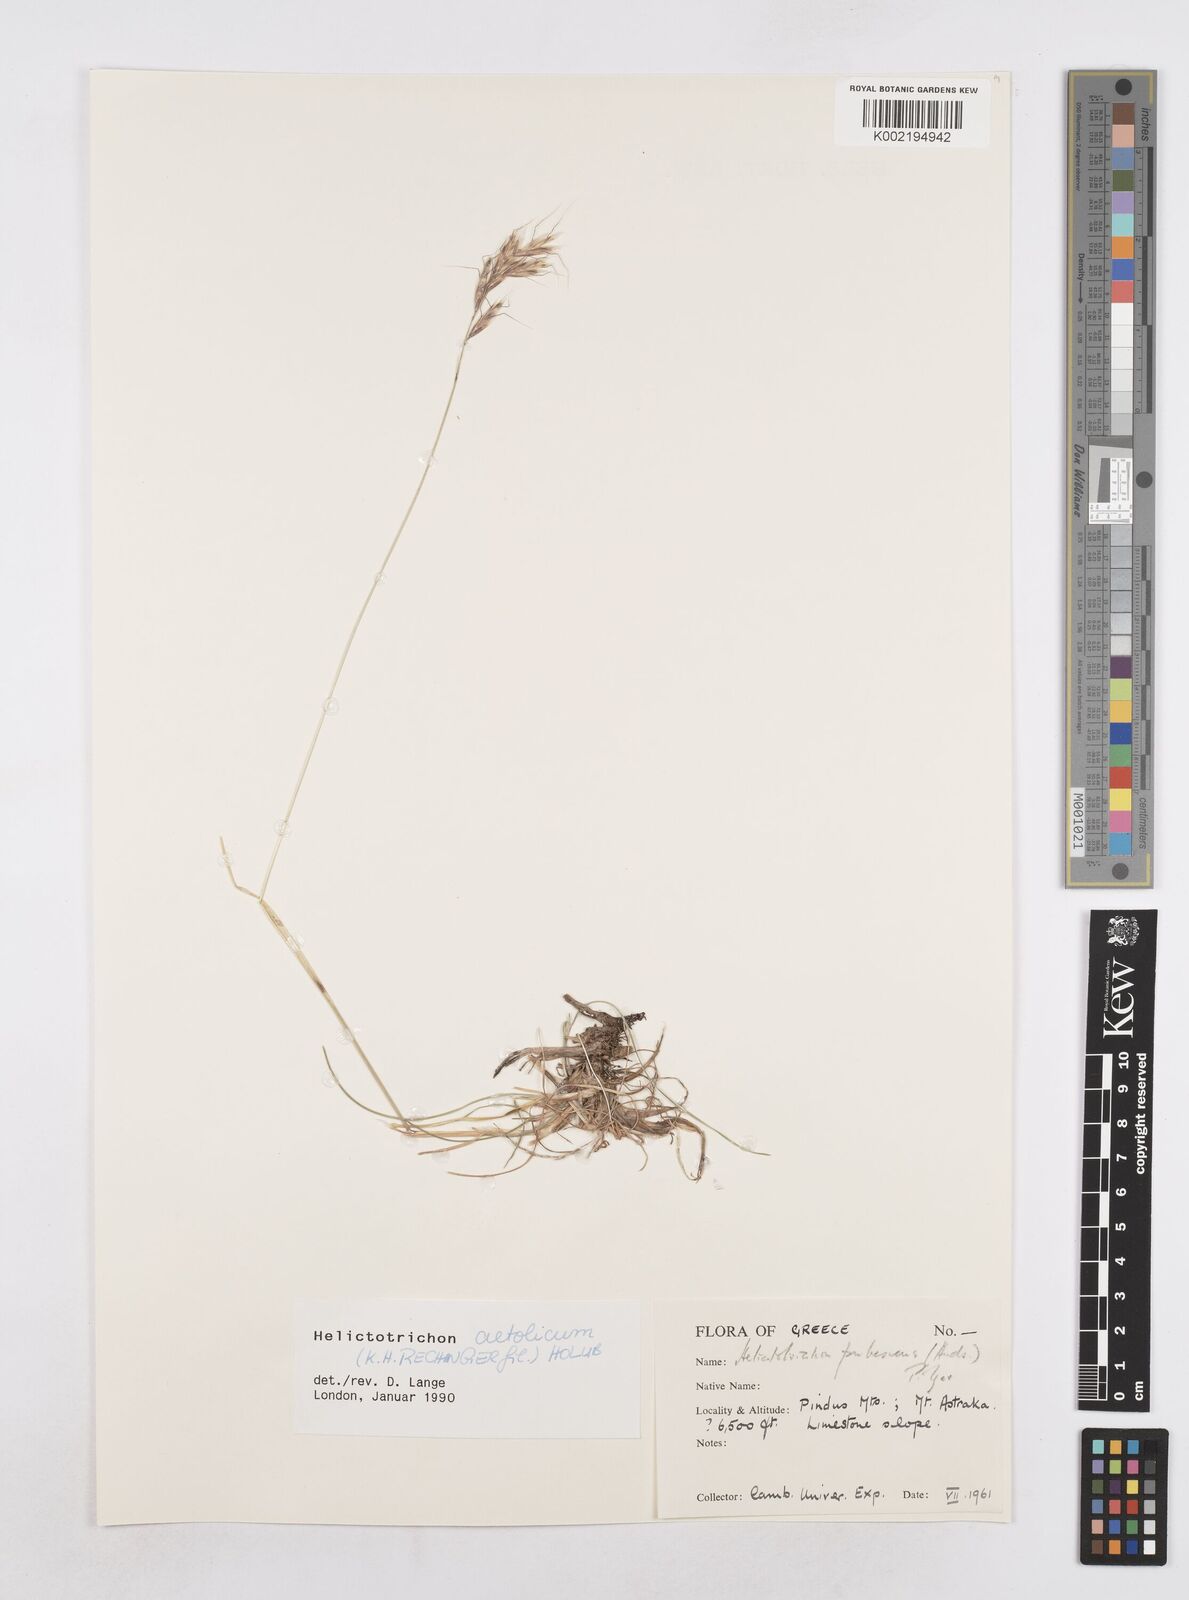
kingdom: Plantae
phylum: Tracheophyta
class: Liliopsida
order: Poales
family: Poaceae
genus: Helictochloa
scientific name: Helictochloa aetolica
